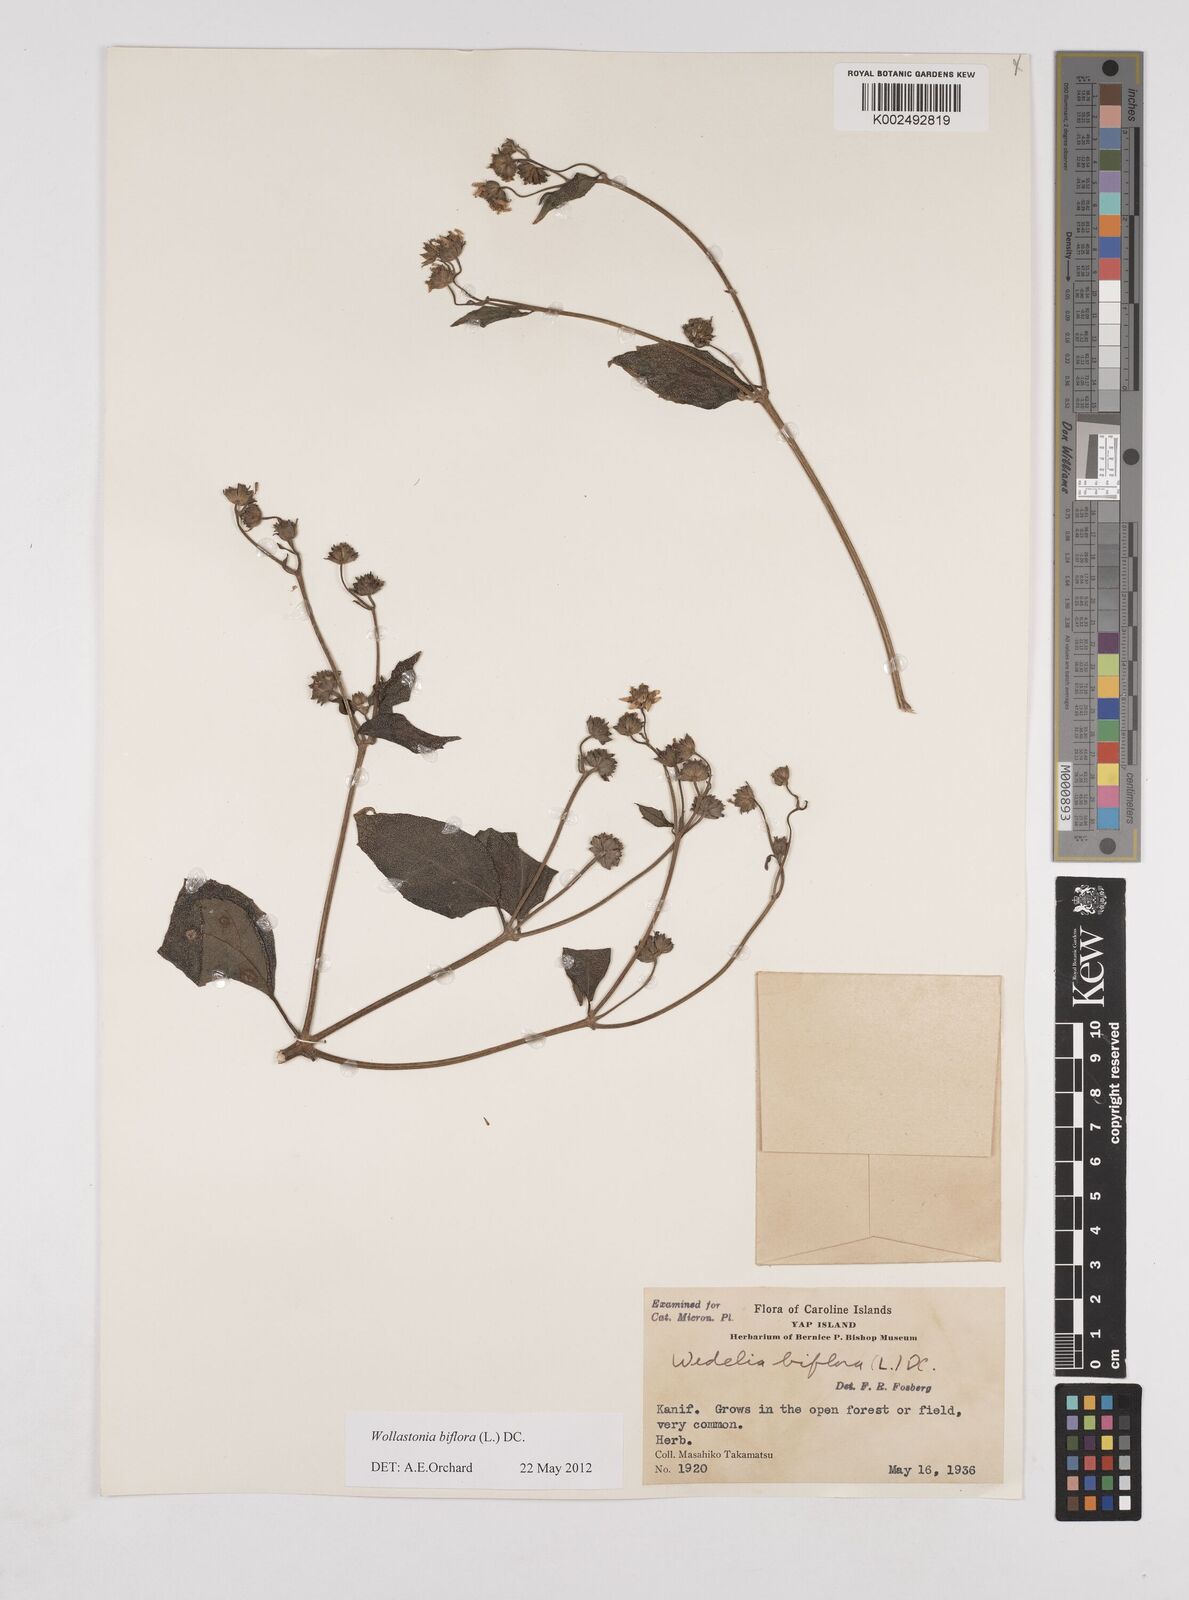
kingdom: Plantae
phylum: Tracheophyta
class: Magnoliopsida
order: Asterales
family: Asteraceae
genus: Wollastonia
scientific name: Wollastonia biflora
